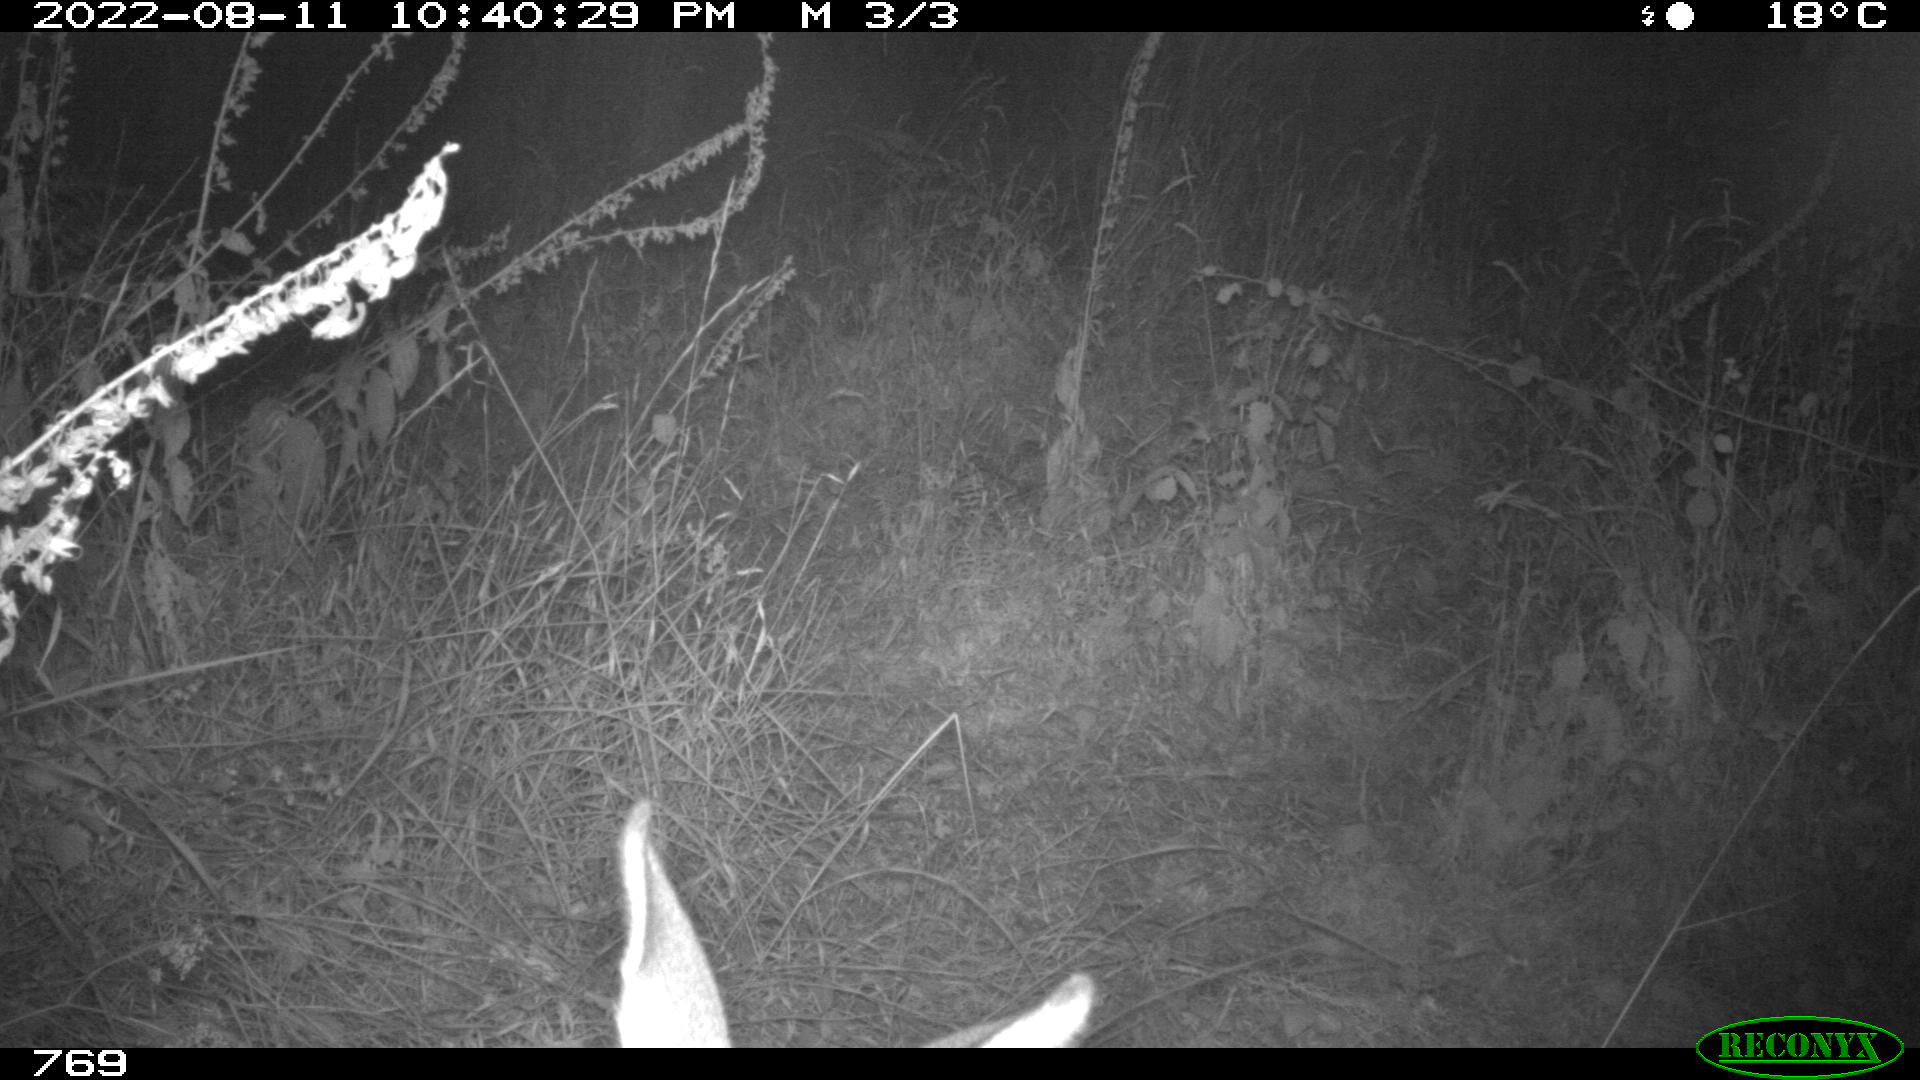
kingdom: Animalia
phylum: Chordata
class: Mammalia
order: Artiodactyla
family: Cervidae
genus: Capreolus
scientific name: Capreolus capreolus
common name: Western roe deer
